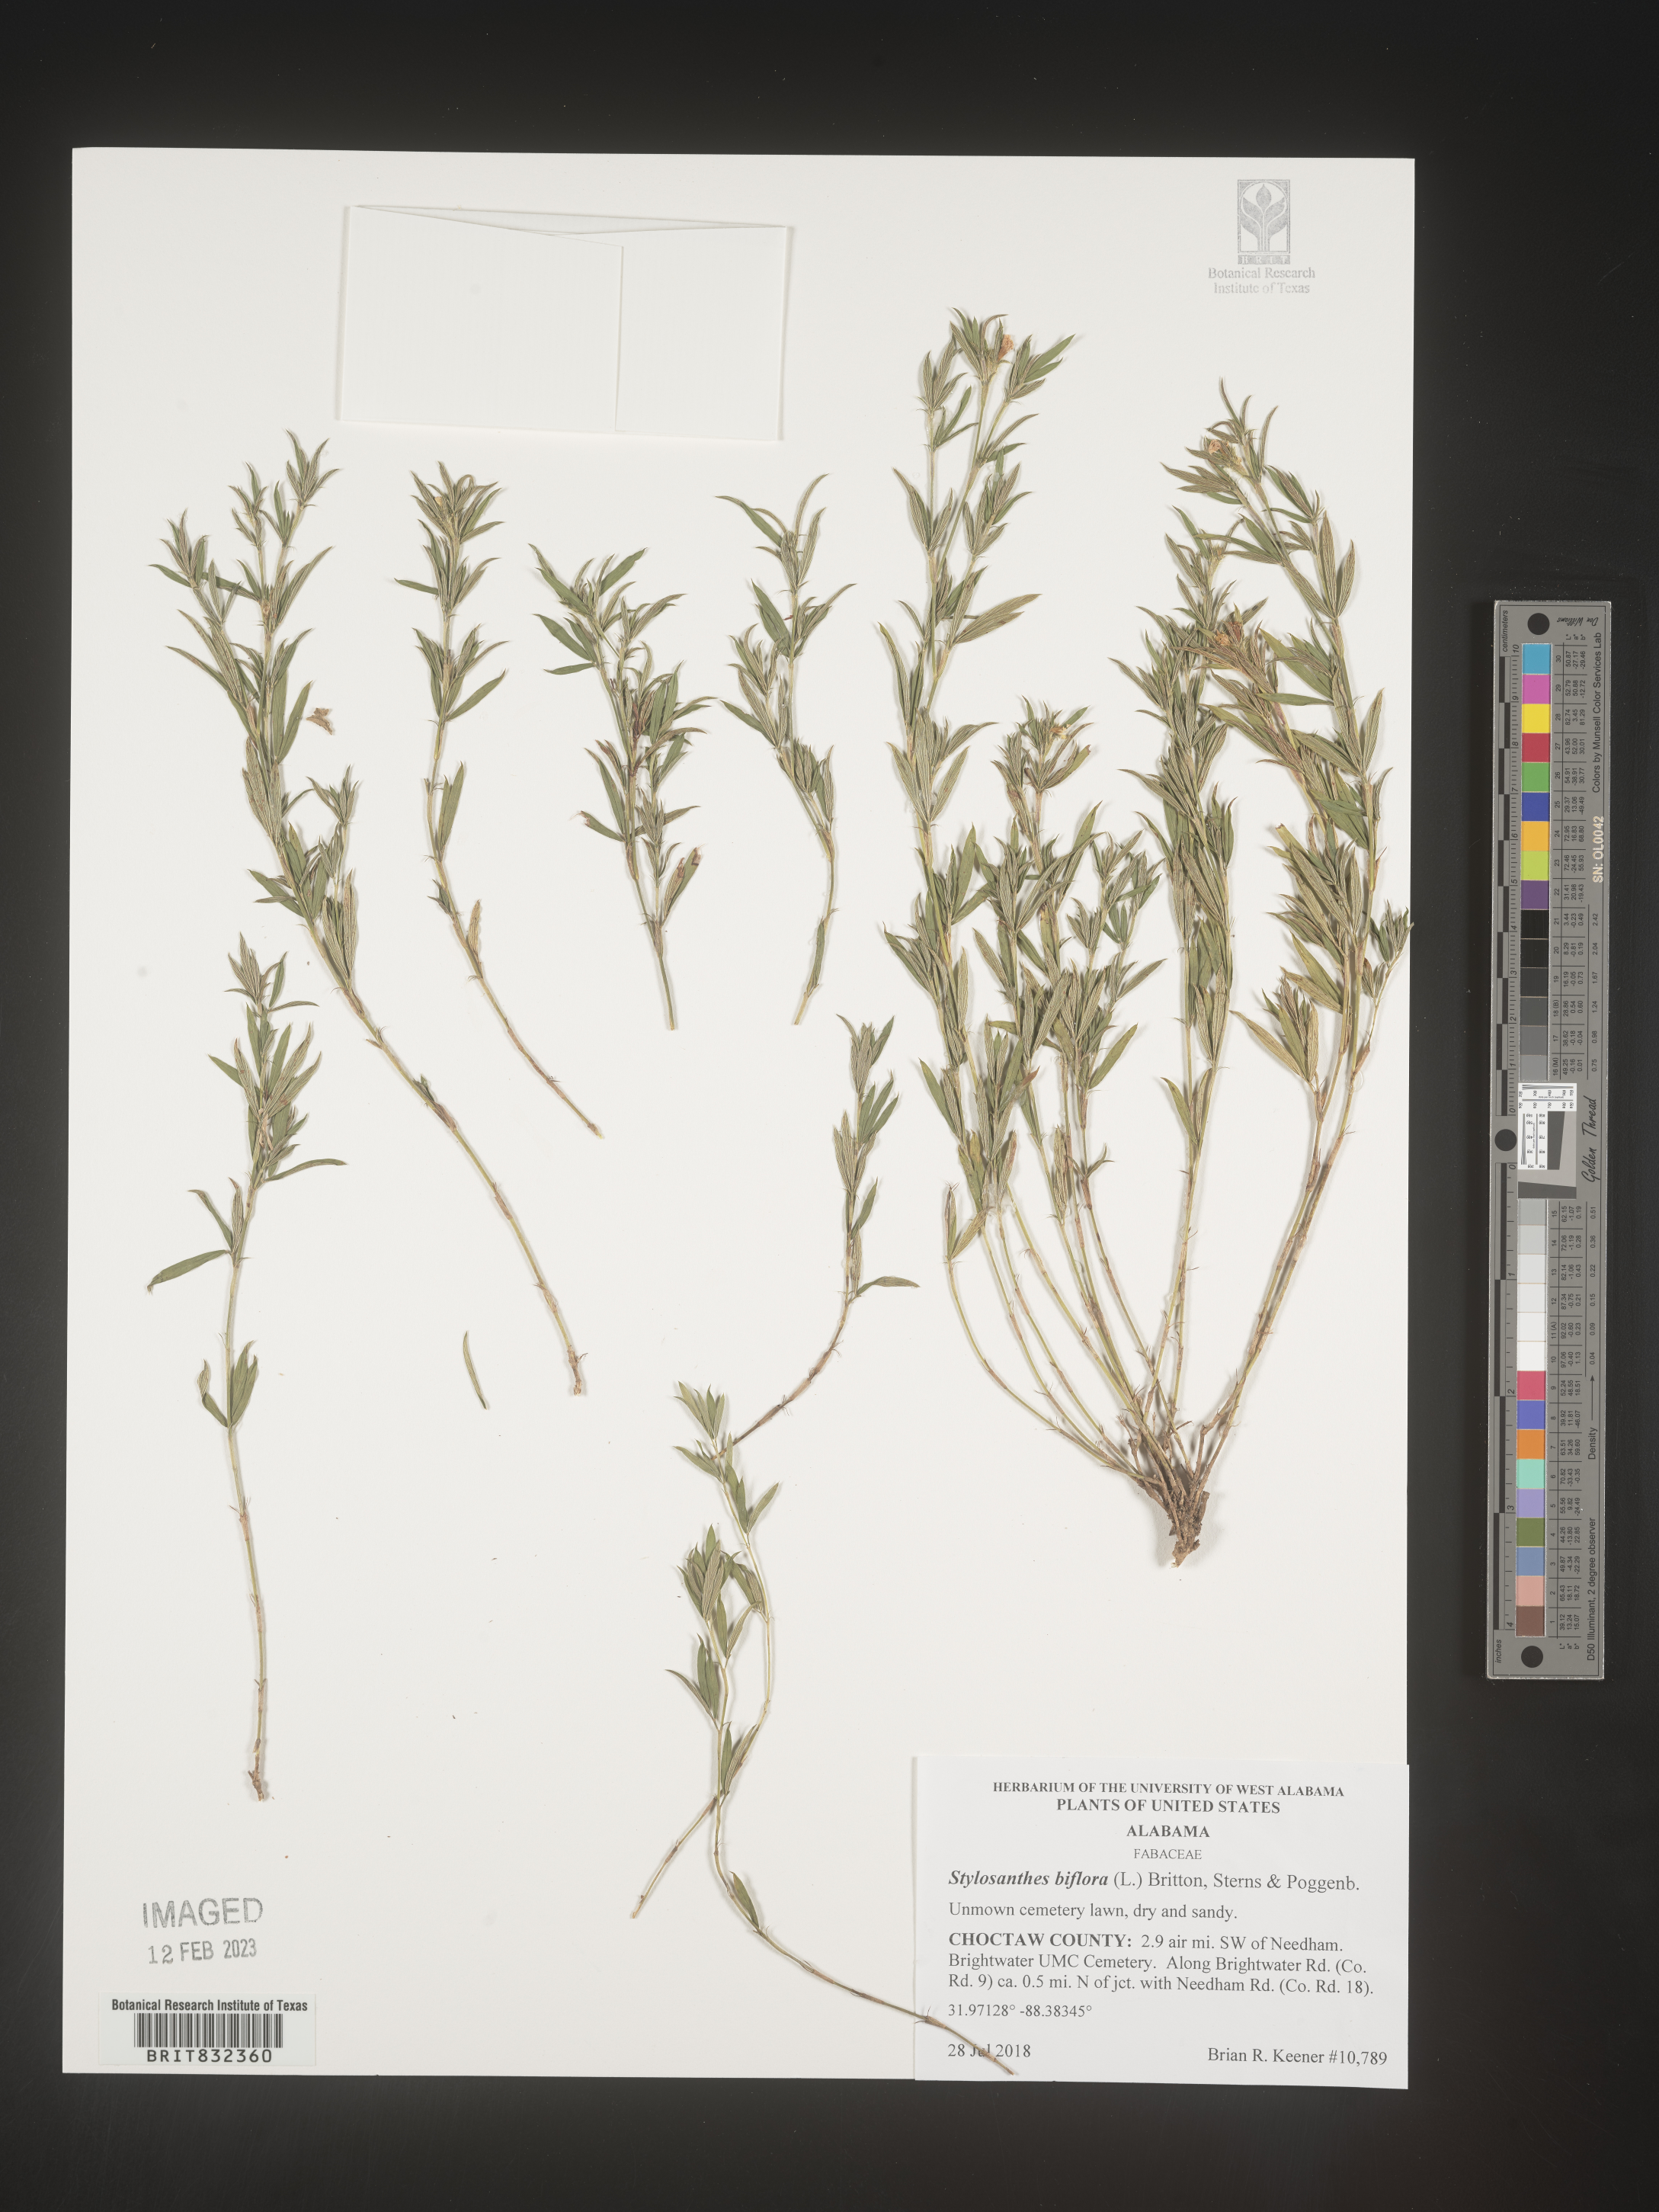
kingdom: Plantae
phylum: Tracheophyta
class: Magnoliopsida
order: Fabales
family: Fabaceae
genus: Stylosanthes
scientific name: Stylosanthes biflora
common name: Two-flower pencil-flower
